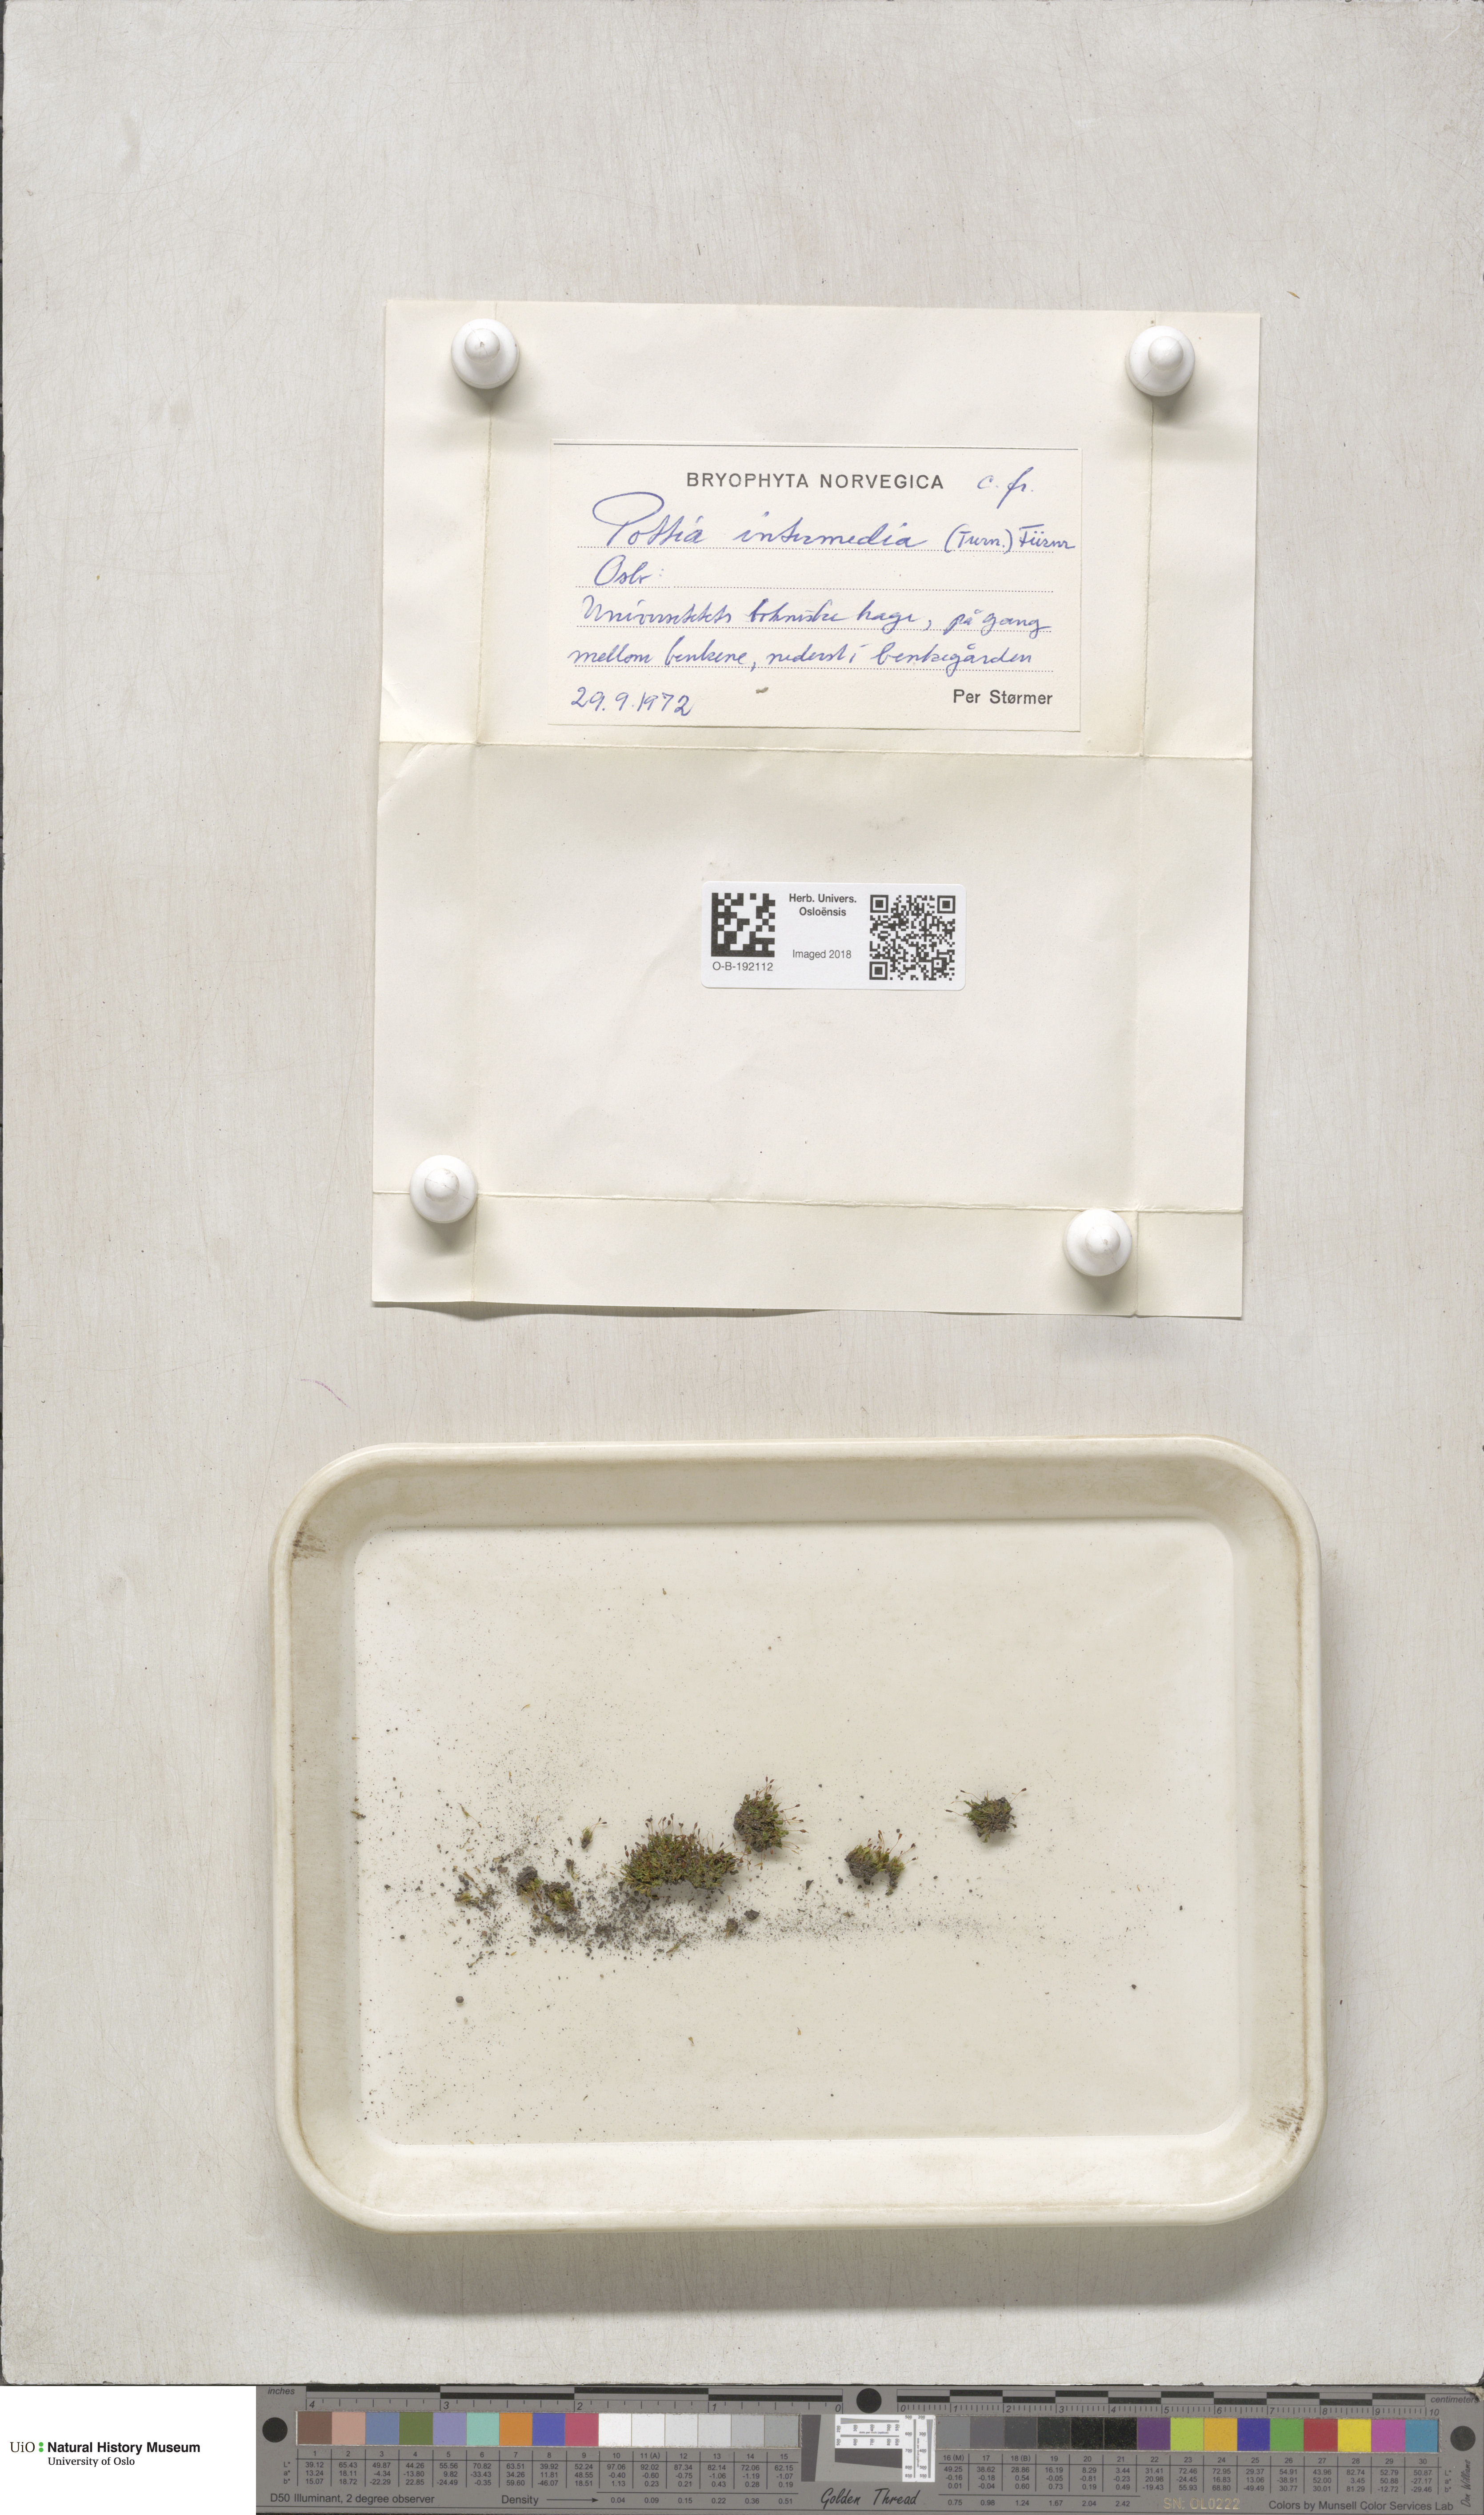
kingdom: Plantae
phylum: Bryophyta
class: Bryopsida
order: Pottiales
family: Pottiaceae
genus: Tortula
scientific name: Tortula caucasica
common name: Blunt-fruited pottia
